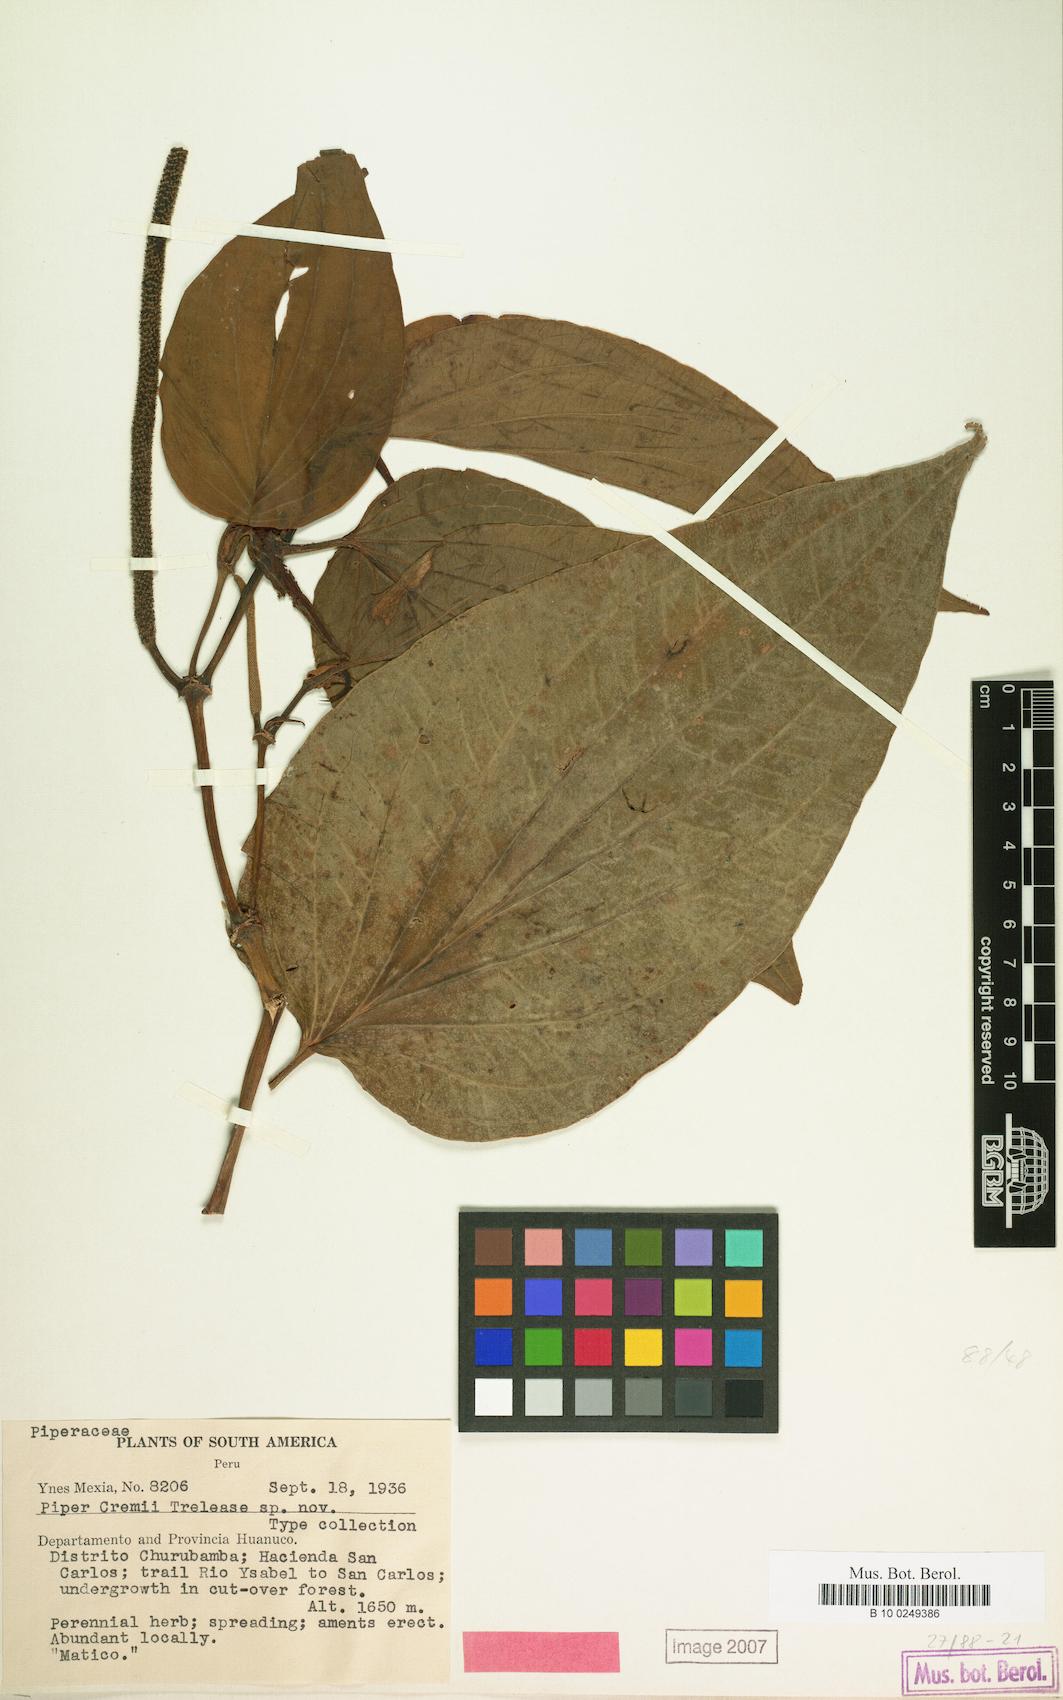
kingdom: Plantae
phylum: Tracheophyta
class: Magnoliopsida
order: Piperales
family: Piperaceae
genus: Piper
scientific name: Piper
